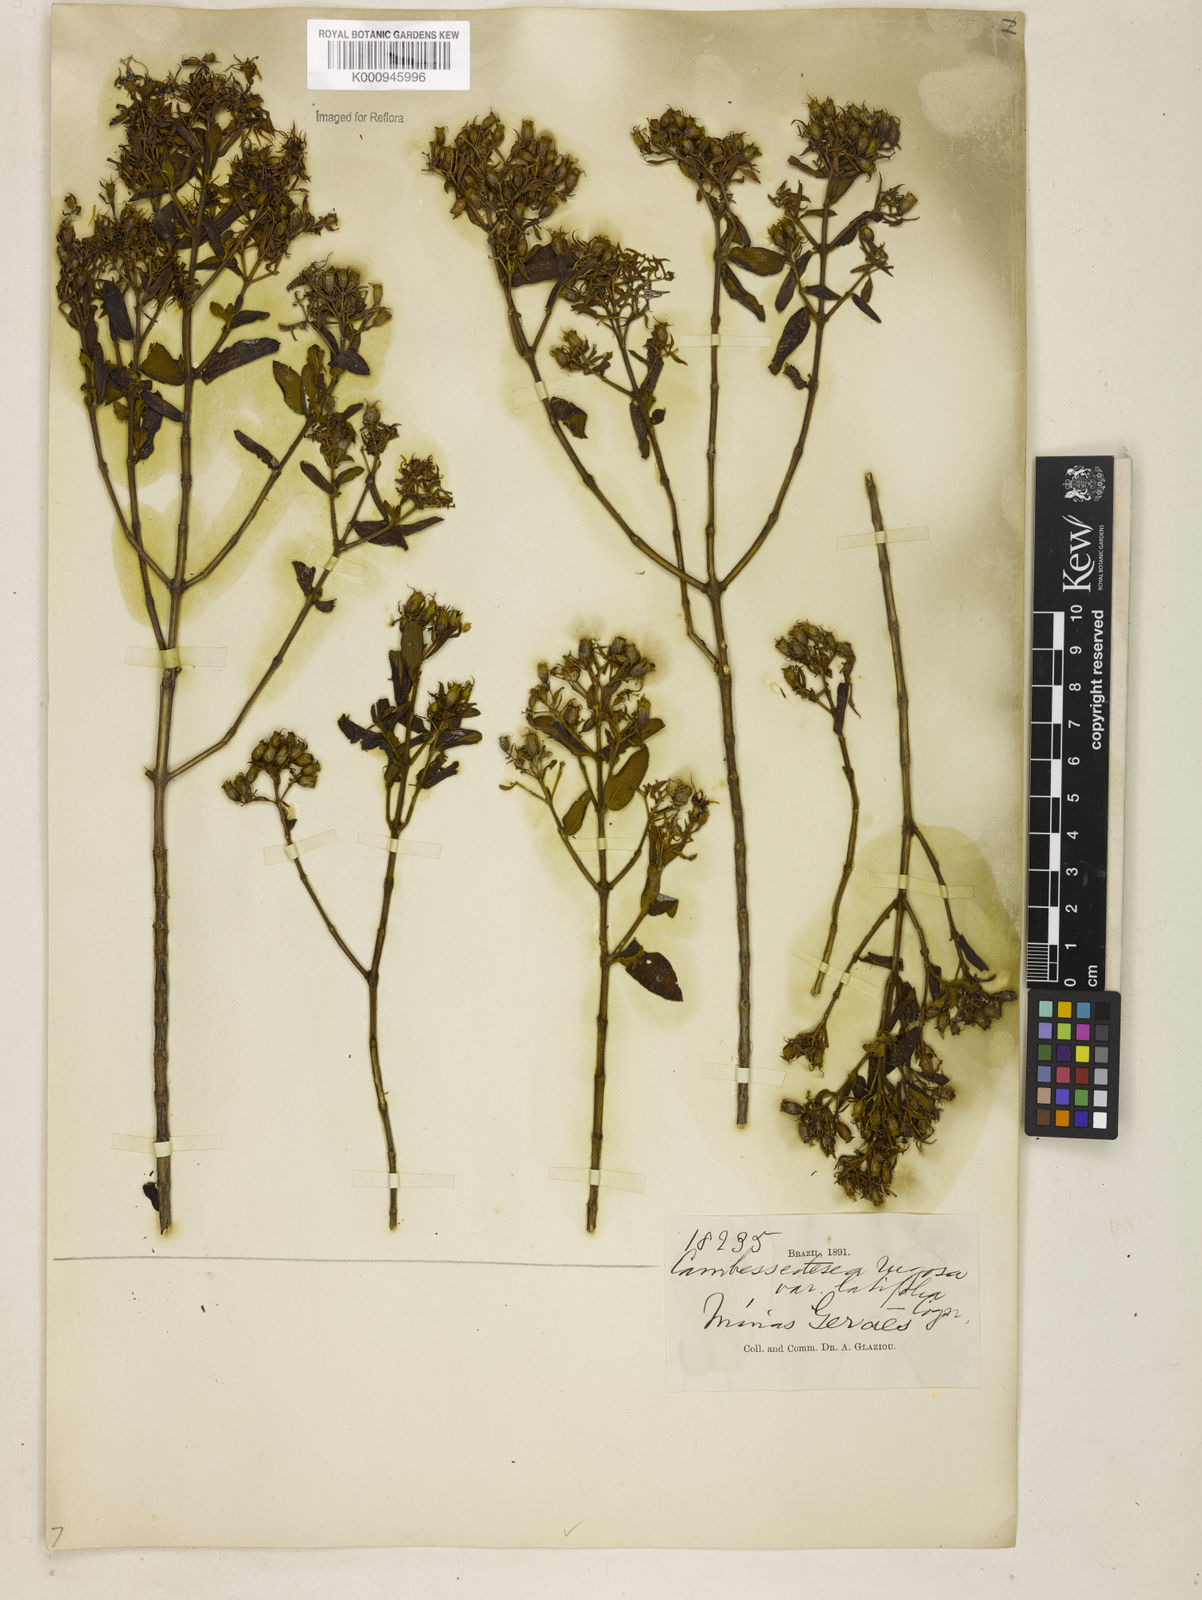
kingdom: Plantae
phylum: Tracheophyta
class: Magnoliopsida
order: Myrtales
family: Melastomataceae
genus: Cambessedesia
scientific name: Cambessedesia corymbosa
